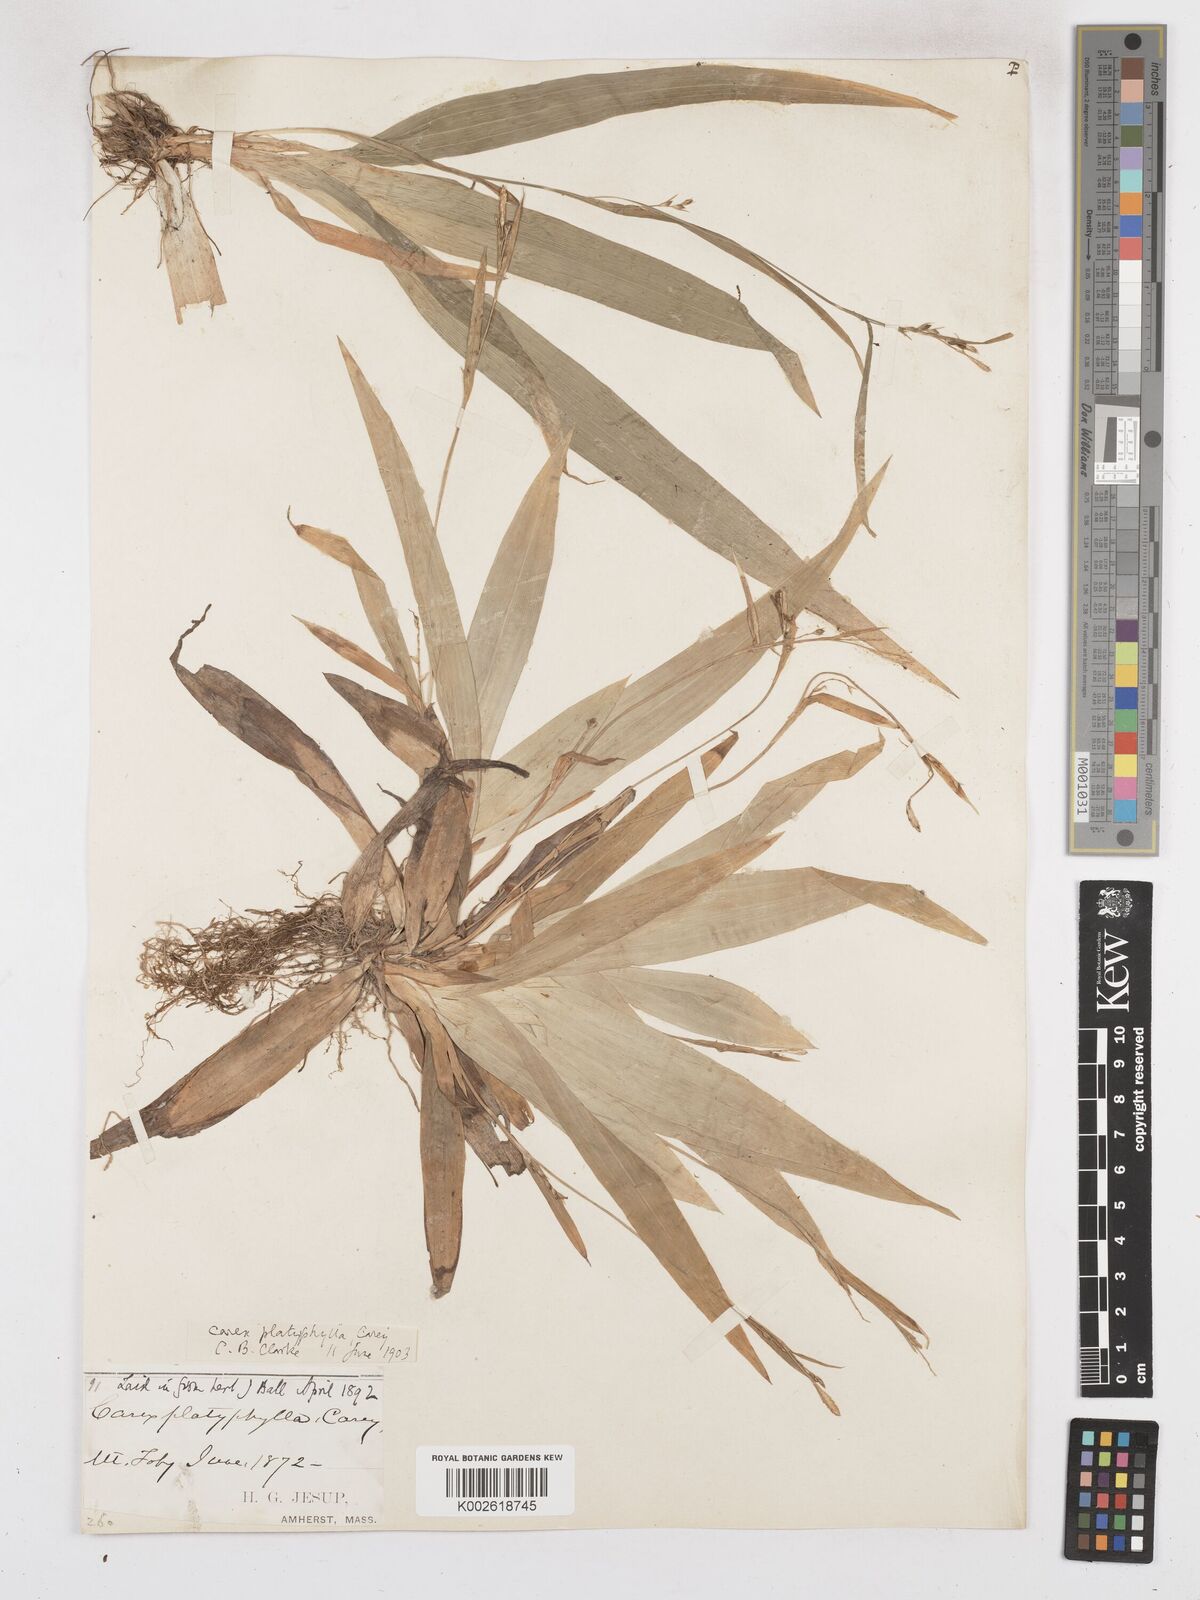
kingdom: Plantae
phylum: Tracheophyta
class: Liliopsida
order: Poales
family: Cyperaceae
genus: Carex
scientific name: Carex platyphylla
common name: Broad-leaved sedge
